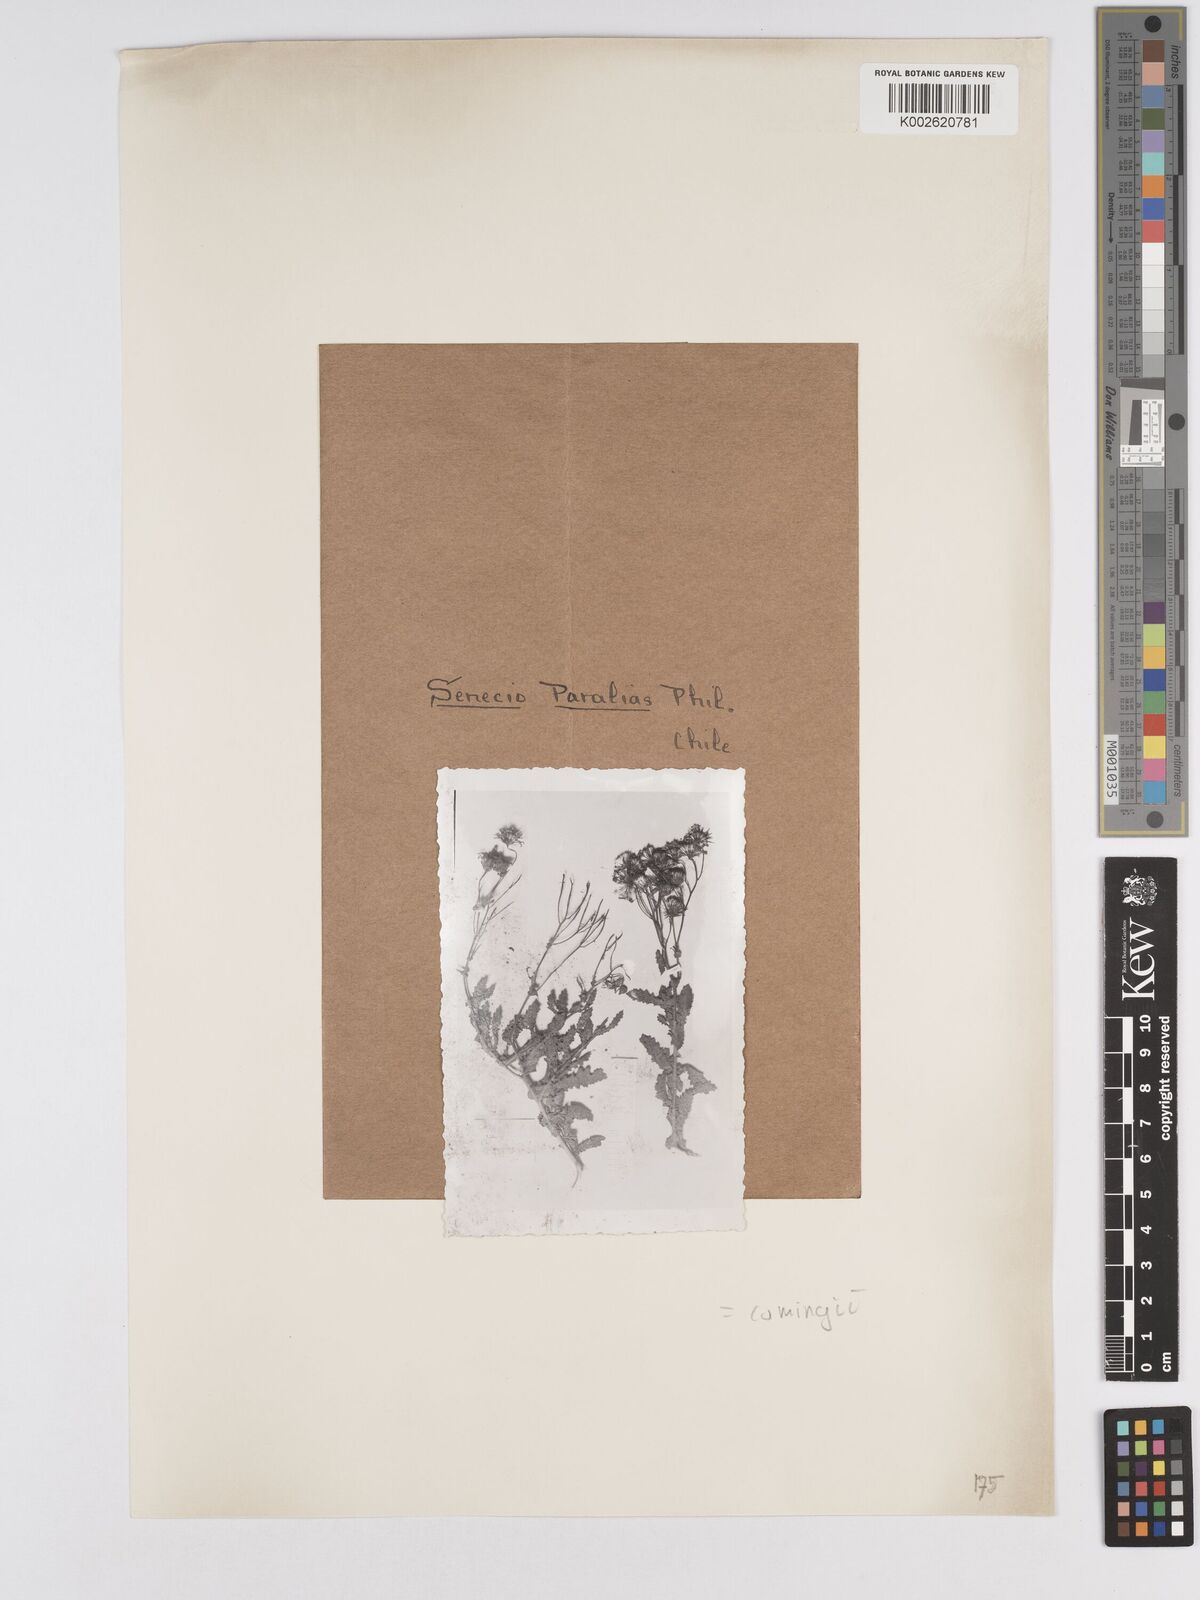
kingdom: Plantae
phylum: Tracheophyta
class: Magnoliopsida
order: Asterales
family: Asteraceae
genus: Senecio
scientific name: Senecio cumingii
